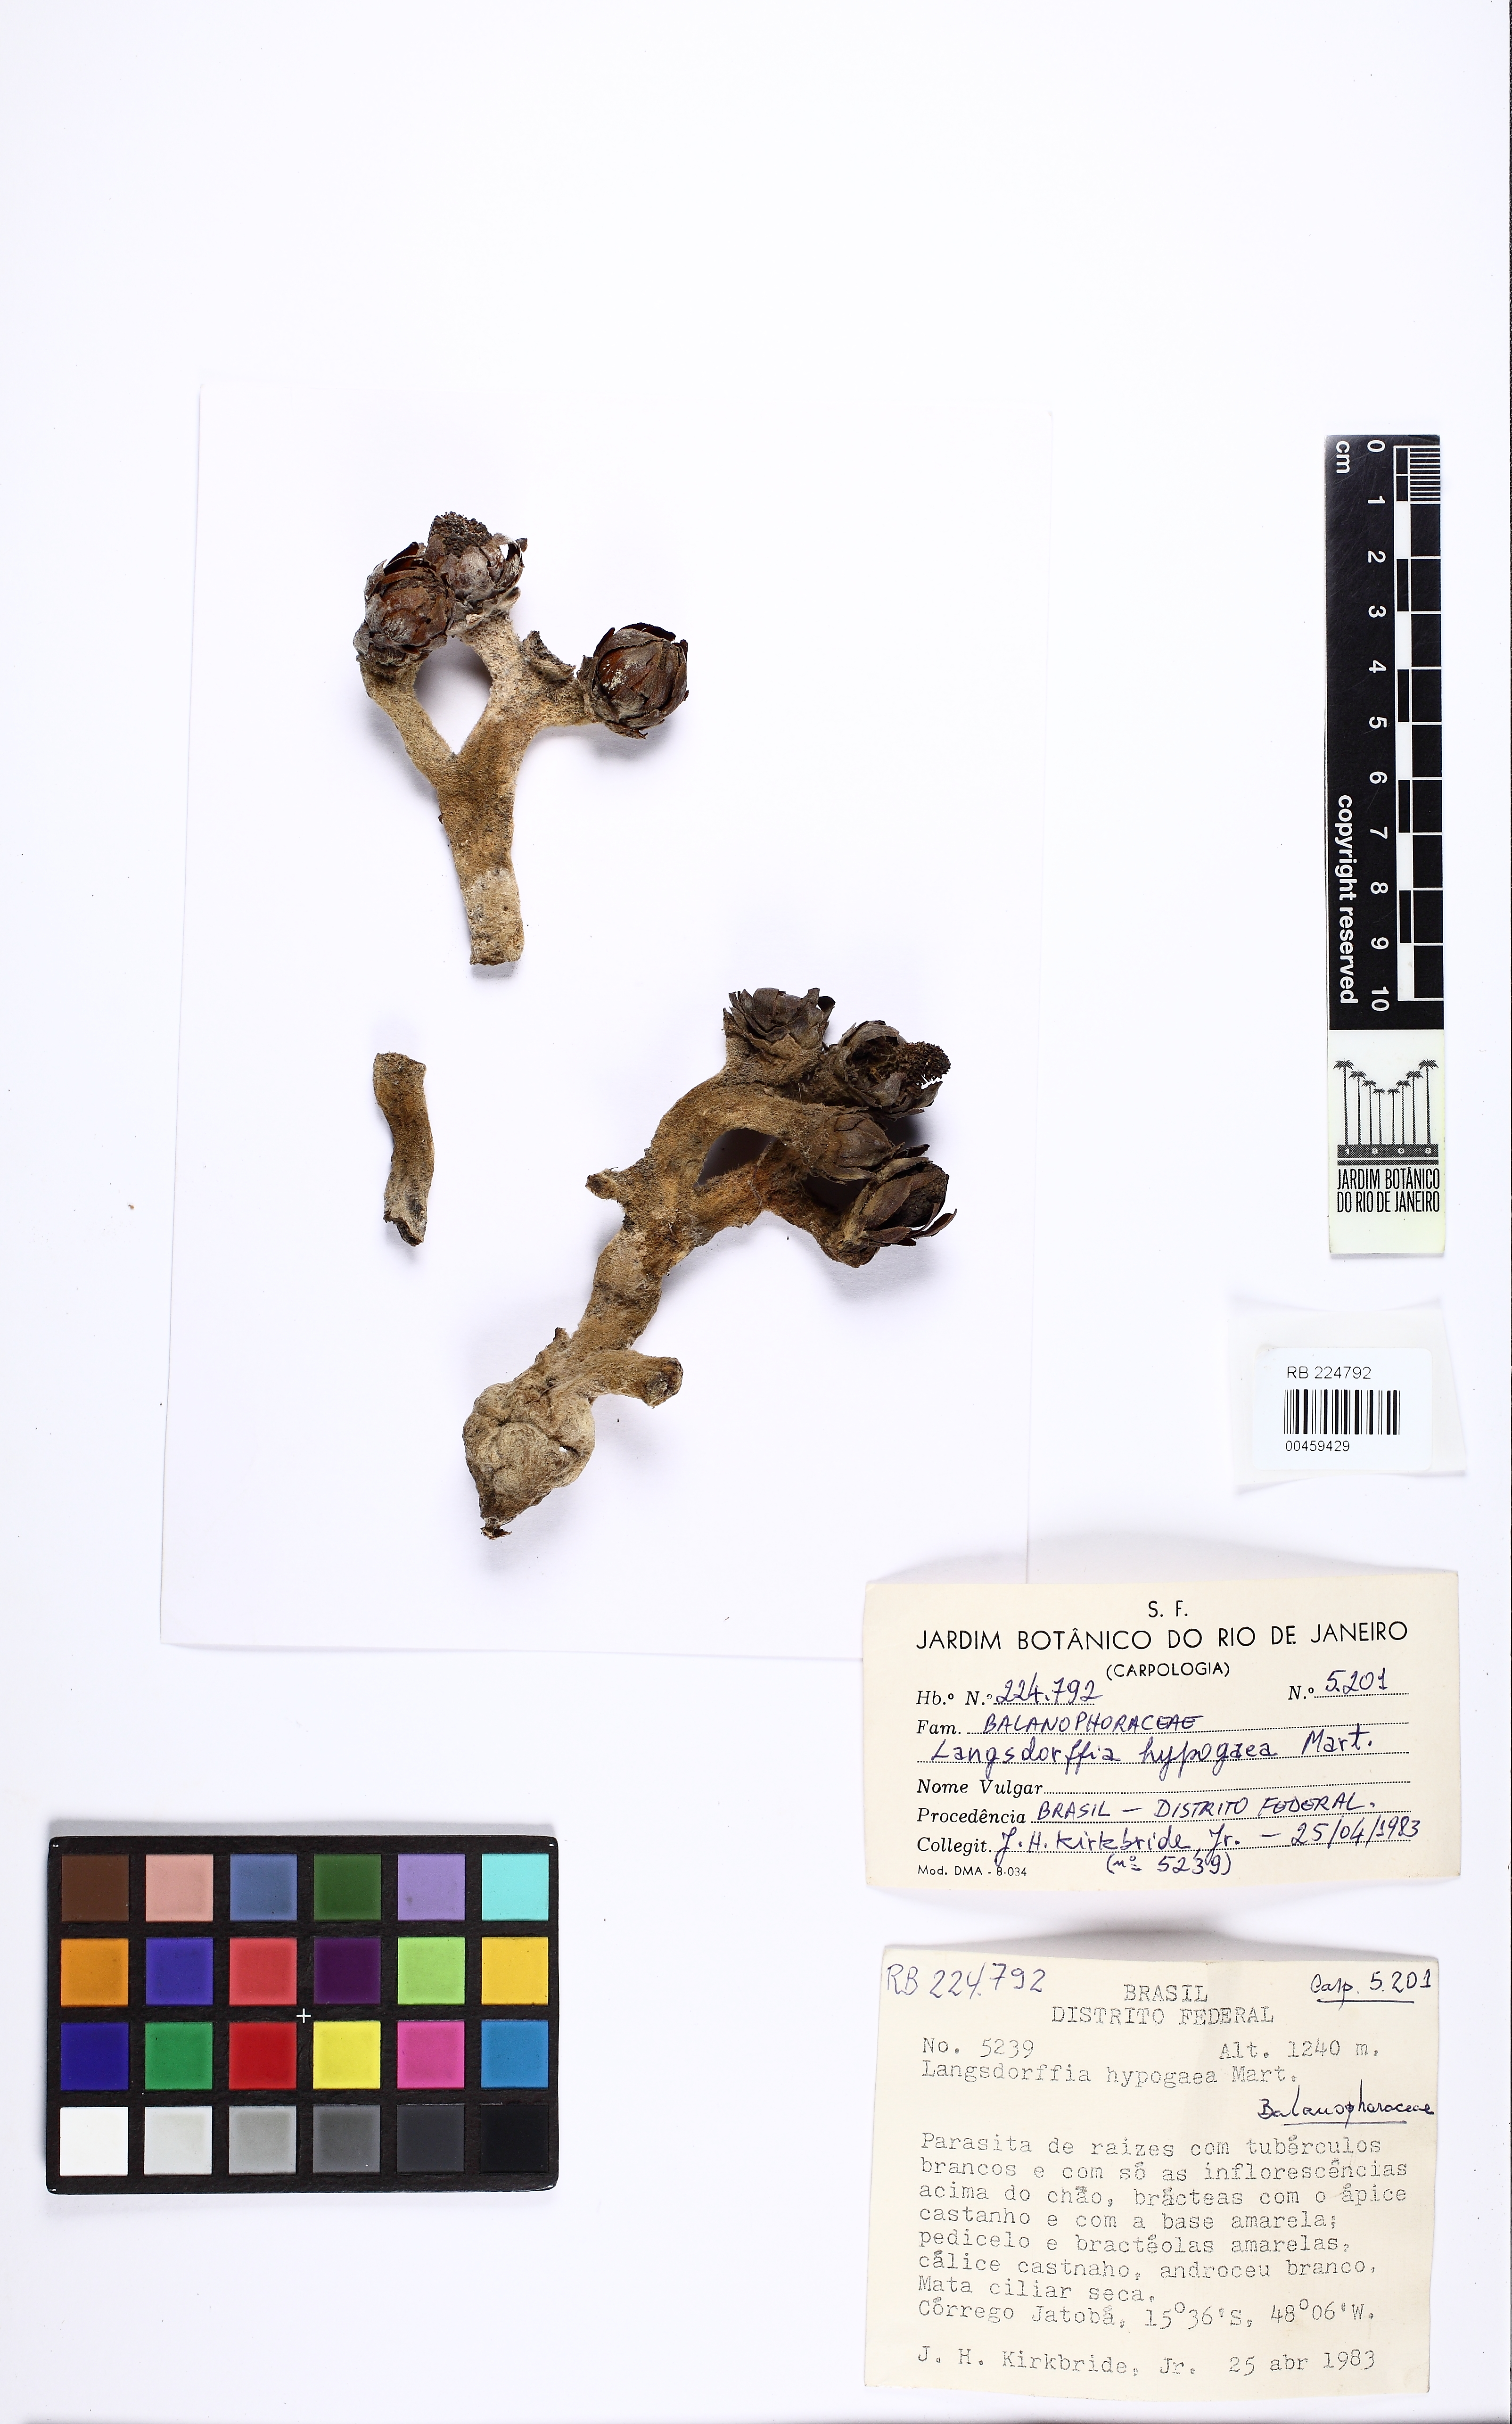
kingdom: Plantae
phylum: Tracheophyta
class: Magnoliopsida
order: Santalales
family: Balanophoraceae
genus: Langsdorffia
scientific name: Langsdorffia hypogaea
